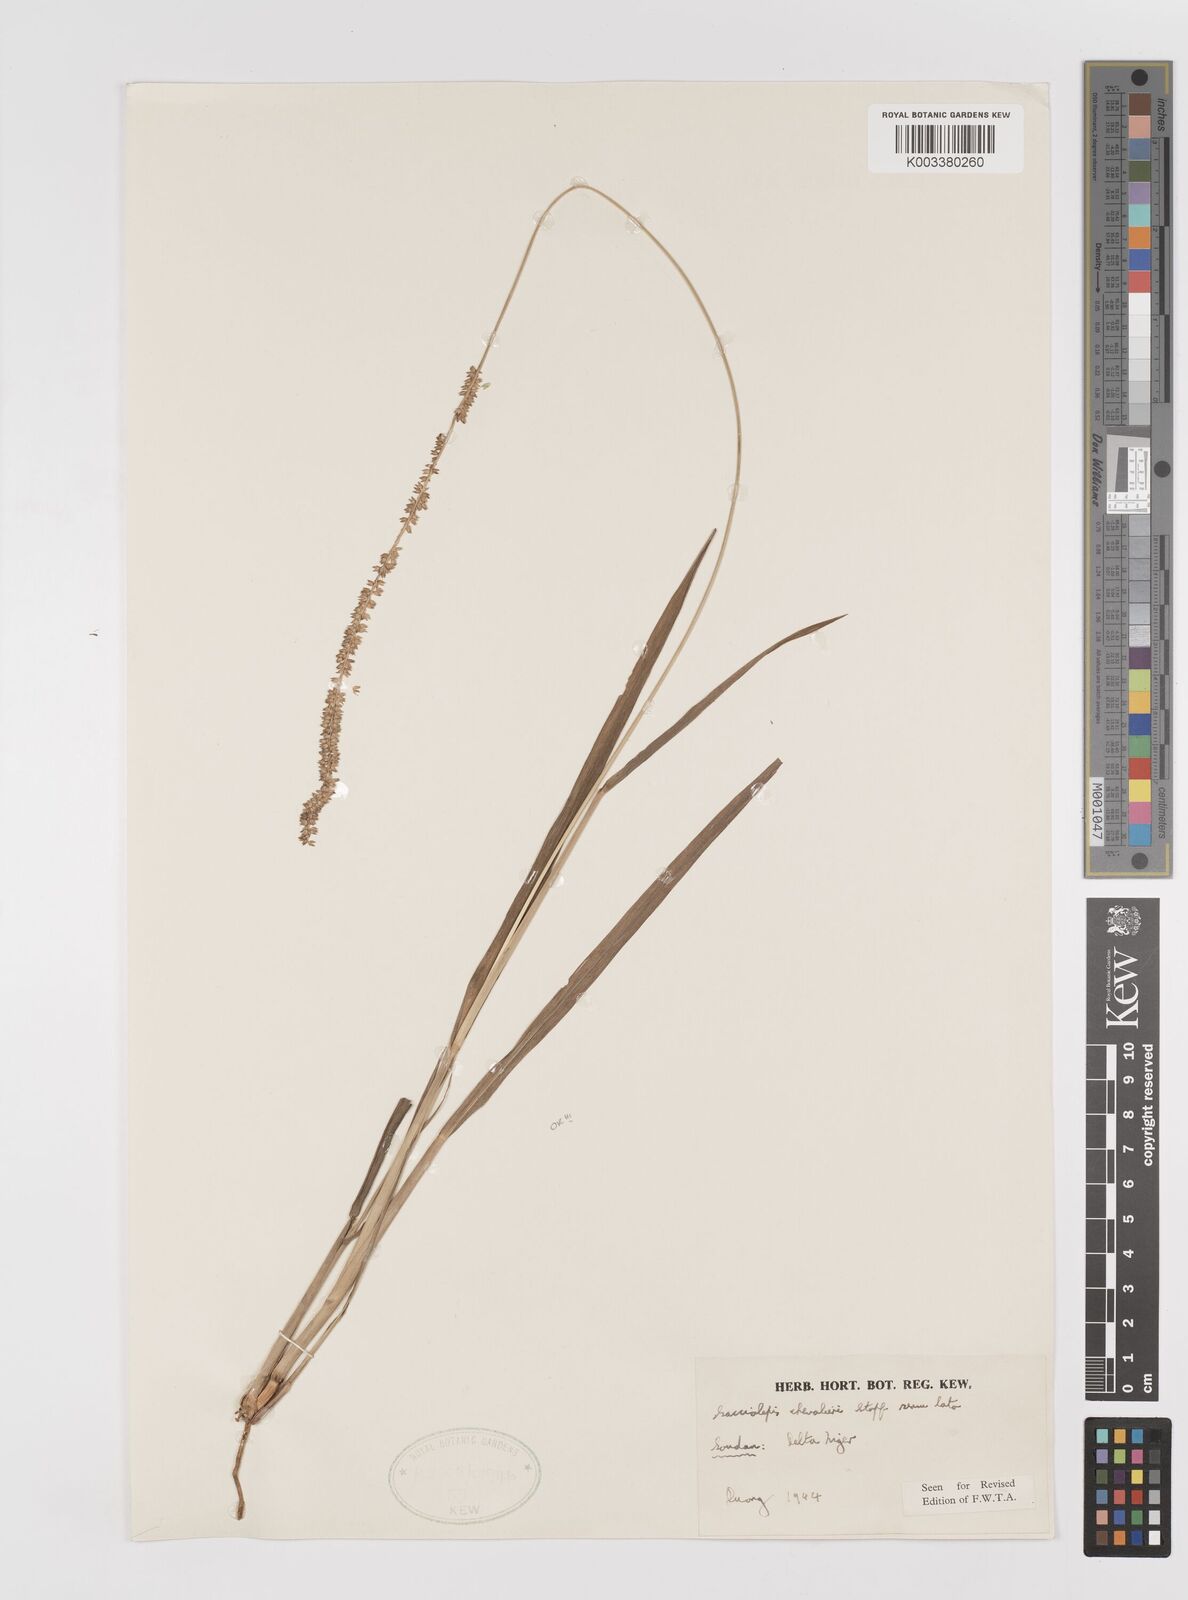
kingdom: Plantae
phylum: Tracheophyta
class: Liliopsida
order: Poales
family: Poaceae
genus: Sacciolepis
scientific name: Sacciolepis chevalieri
